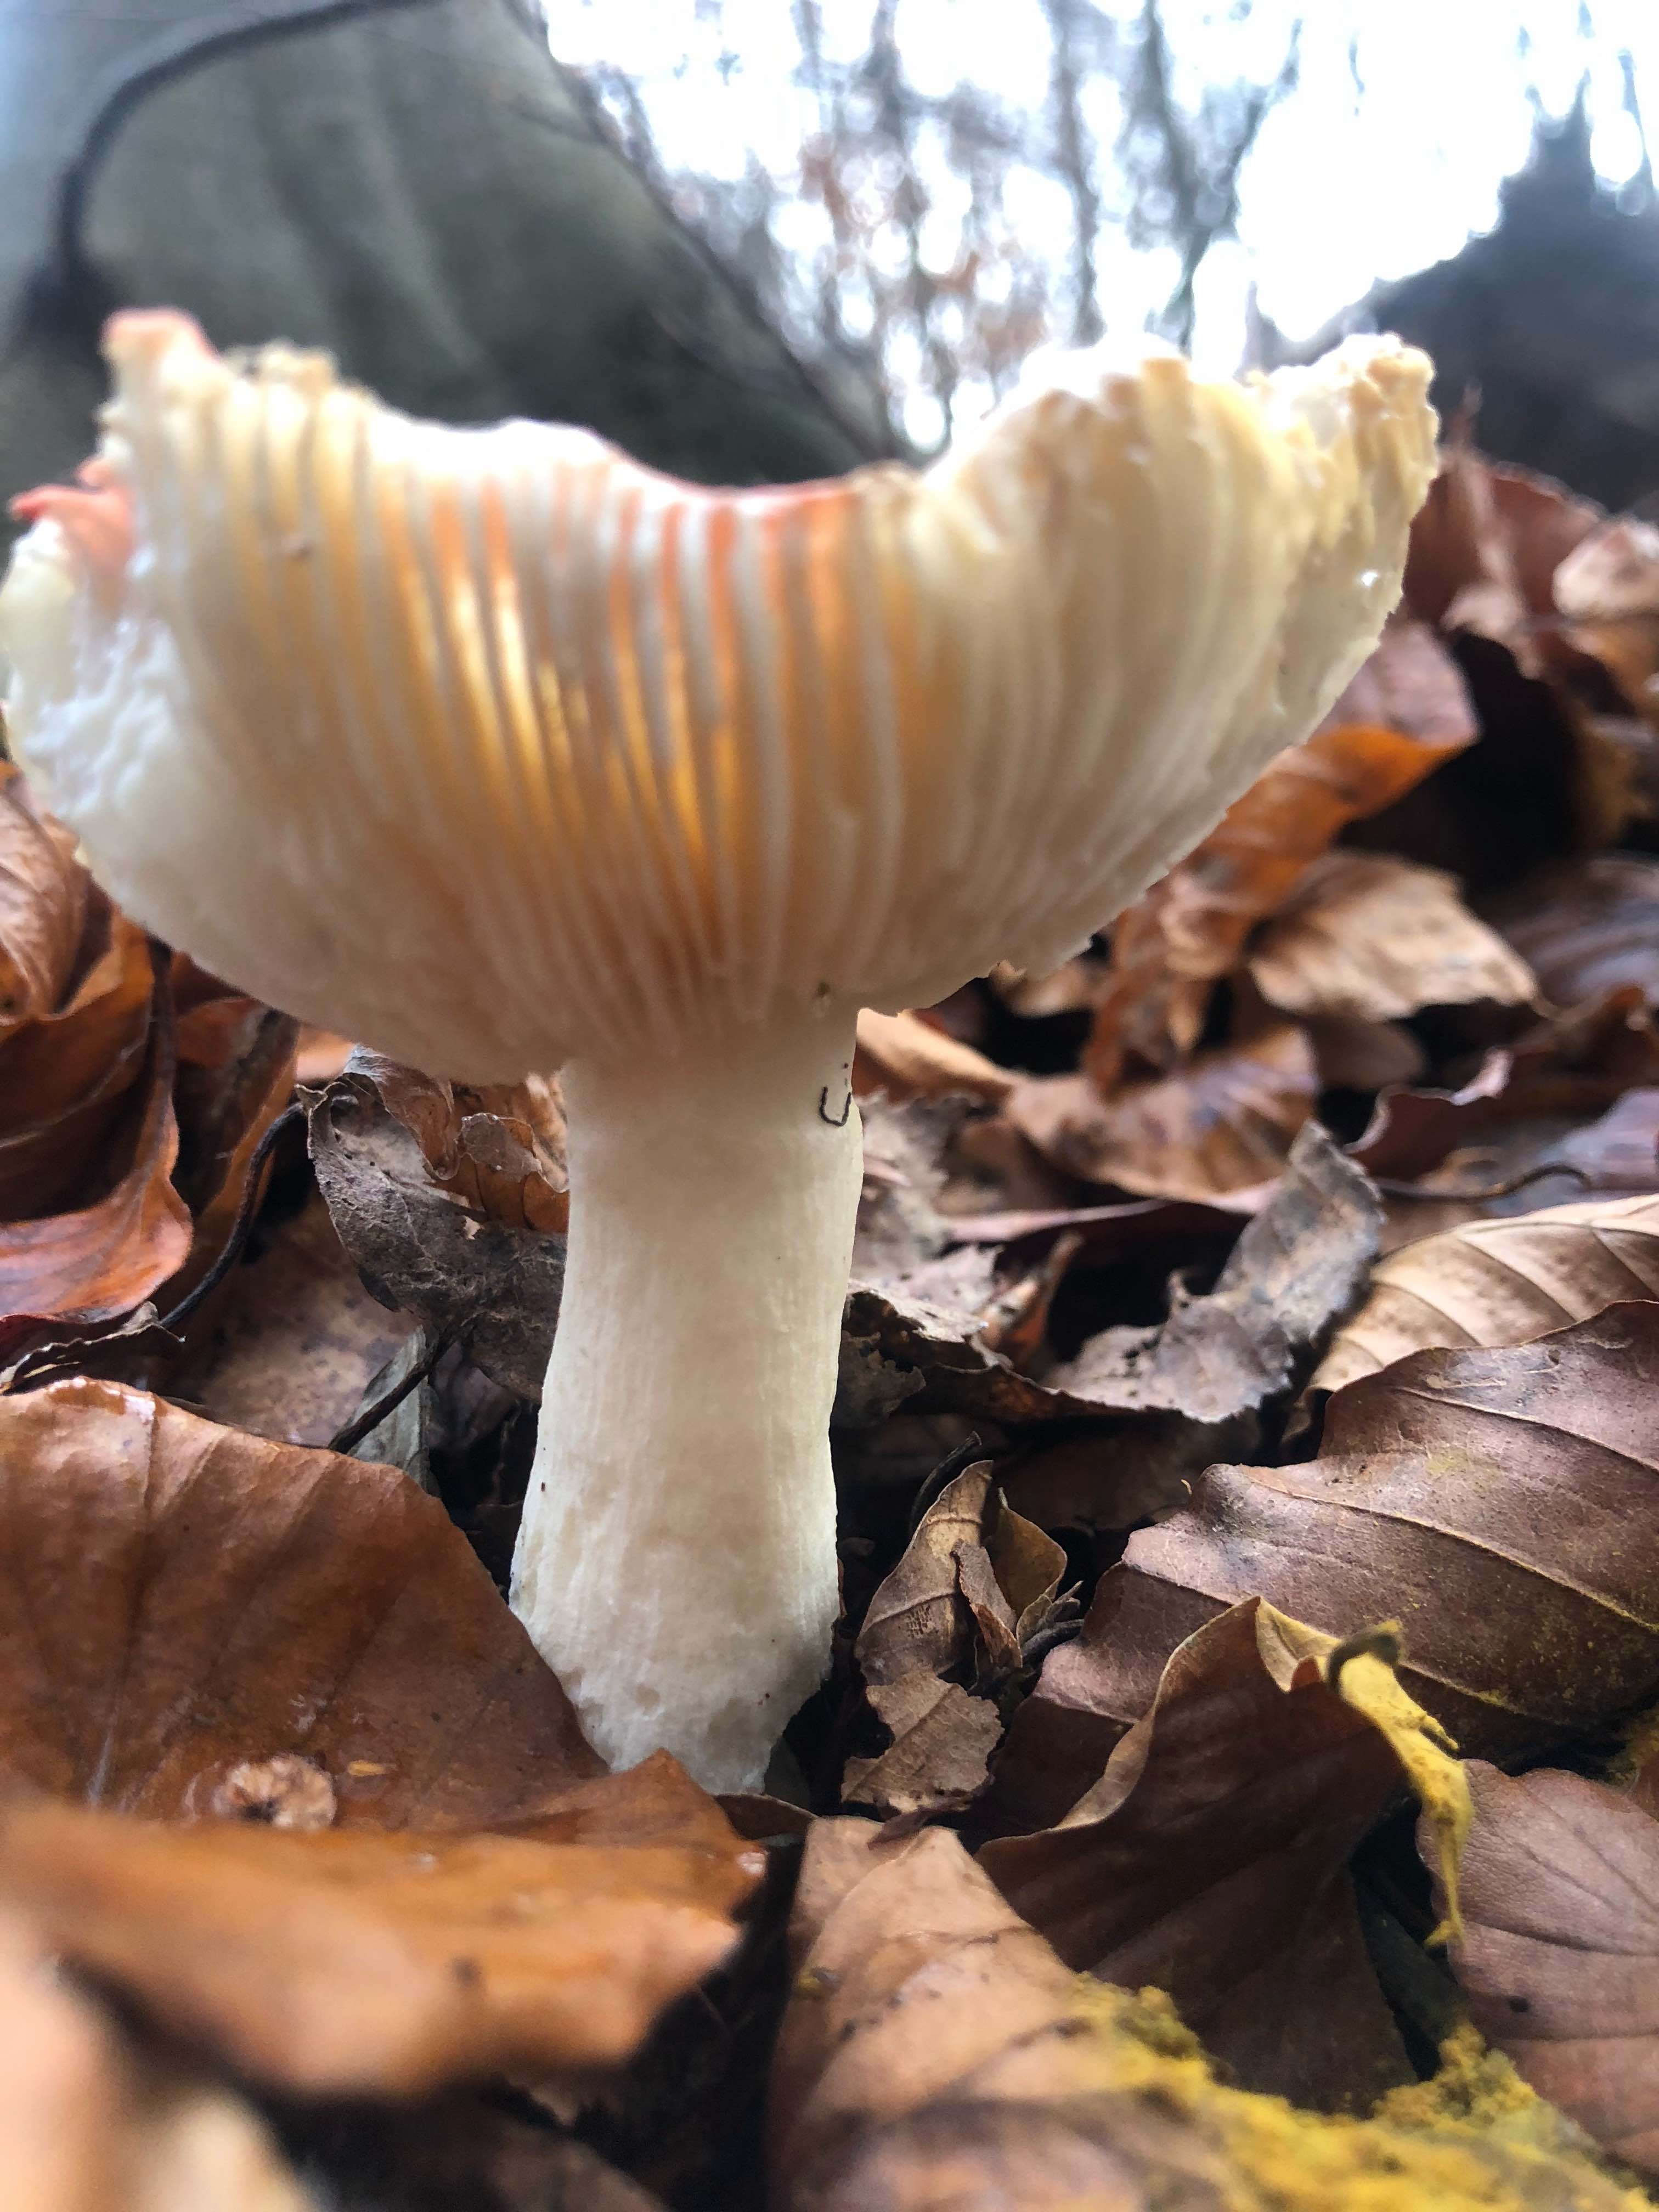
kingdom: Fungi
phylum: Basidiomycota
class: Agaricomycetes
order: Russulales
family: Russulaceae
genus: Russula
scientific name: Russula
